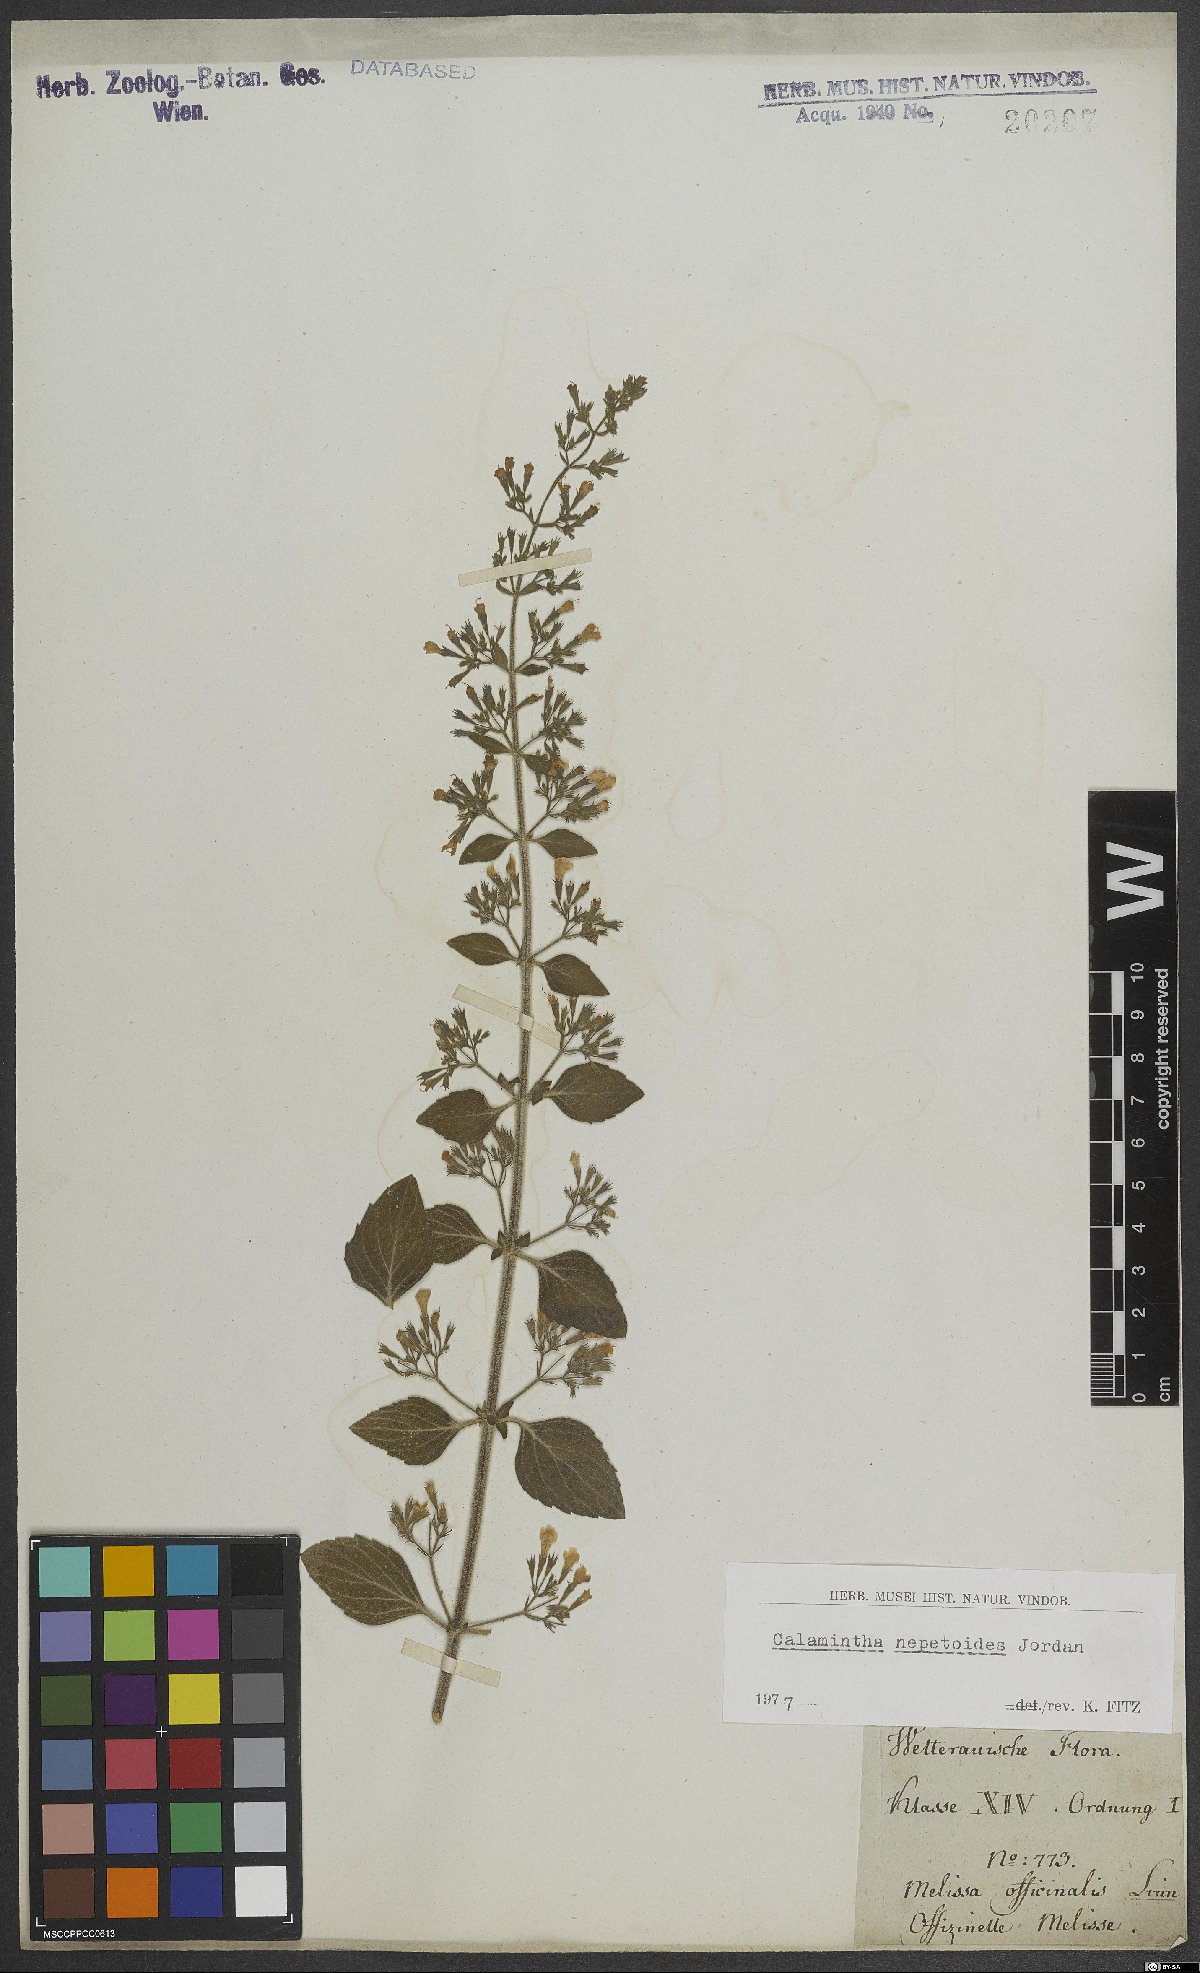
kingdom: Plantae
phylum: Tracheophyta
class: Magnoliopsida
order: Lamiales
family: Lamiaceae
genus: Clinopodium
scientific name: Clinopodium nepeta
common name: Lesser calamint
